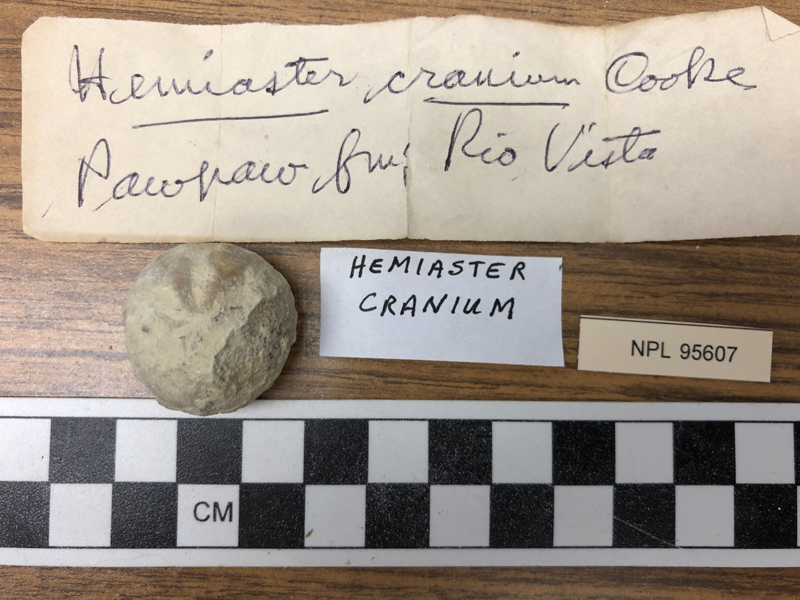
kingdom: Animalia
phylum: Echinodermata
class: Echinoidea
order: Spatangoida
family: Hemiasteridae
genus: Hemiaster
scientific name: Hemiaster cranium
